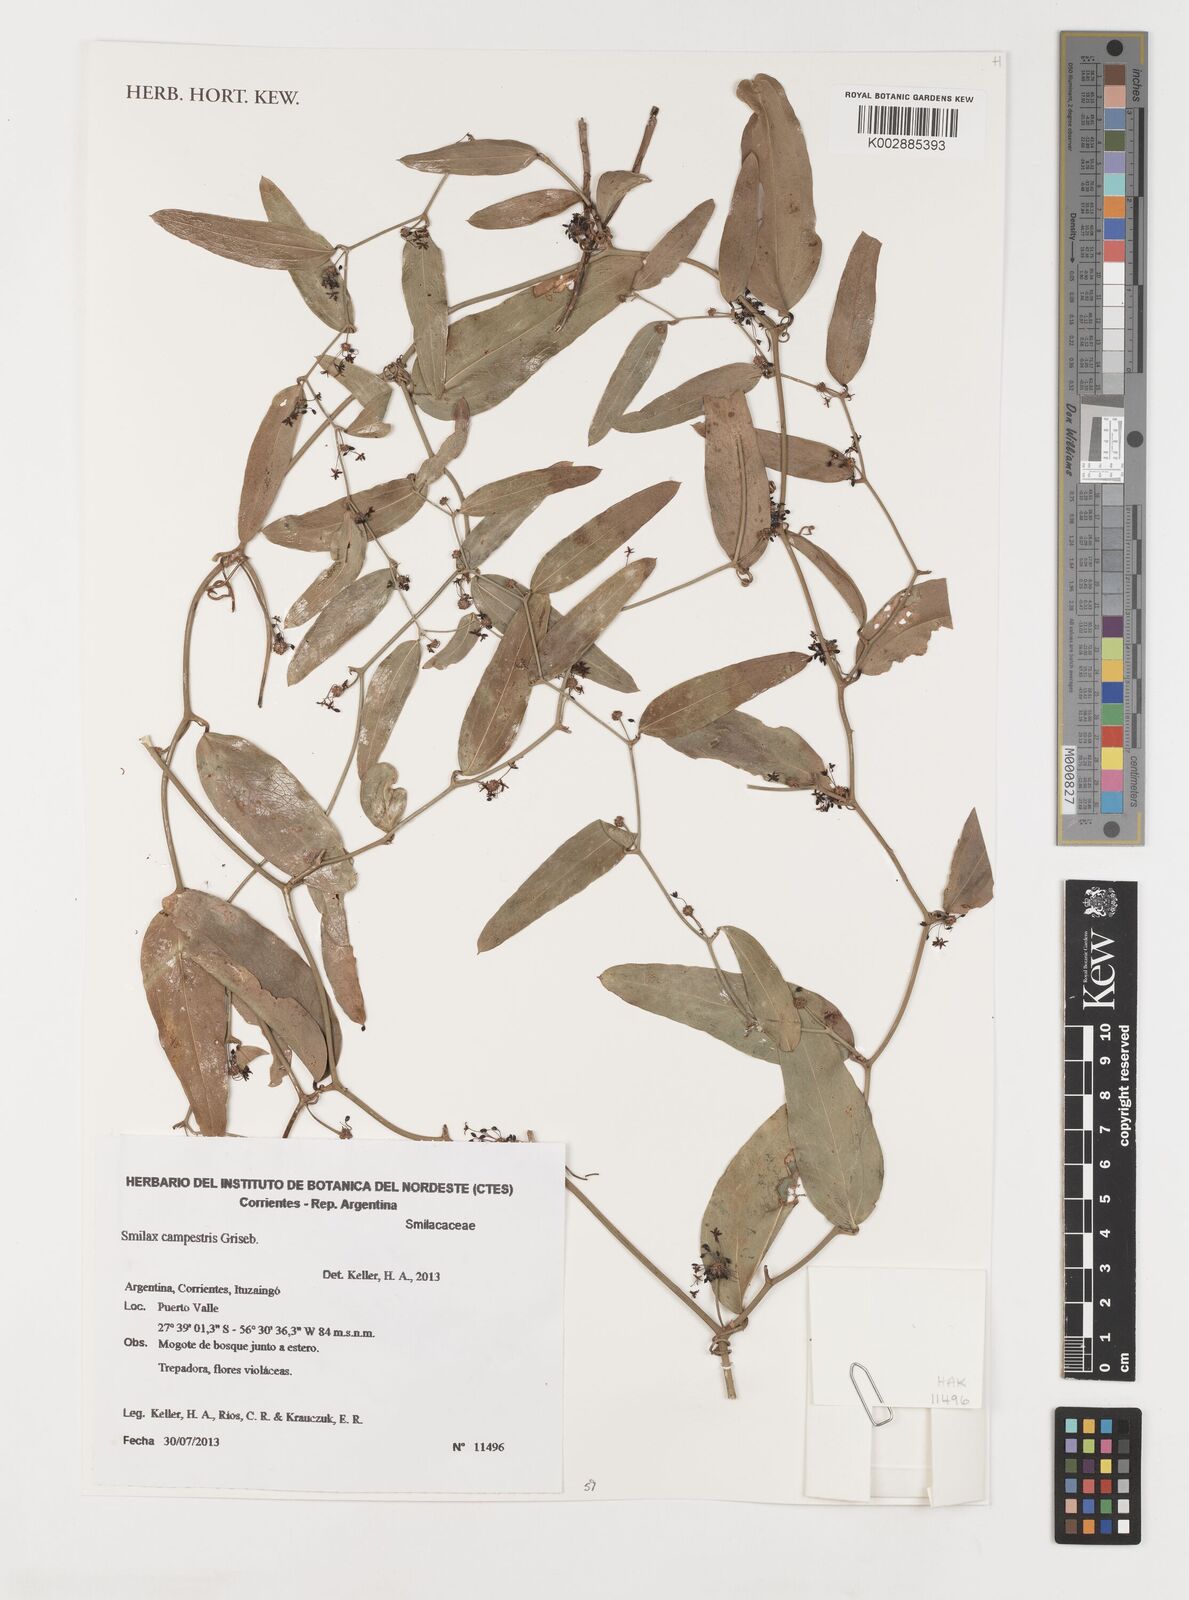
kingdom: Plantae
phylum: Tracheophyta
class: Liliopsida
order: Liliales
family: Smilacaceae
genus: Smilax
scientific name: Smilax campestris
